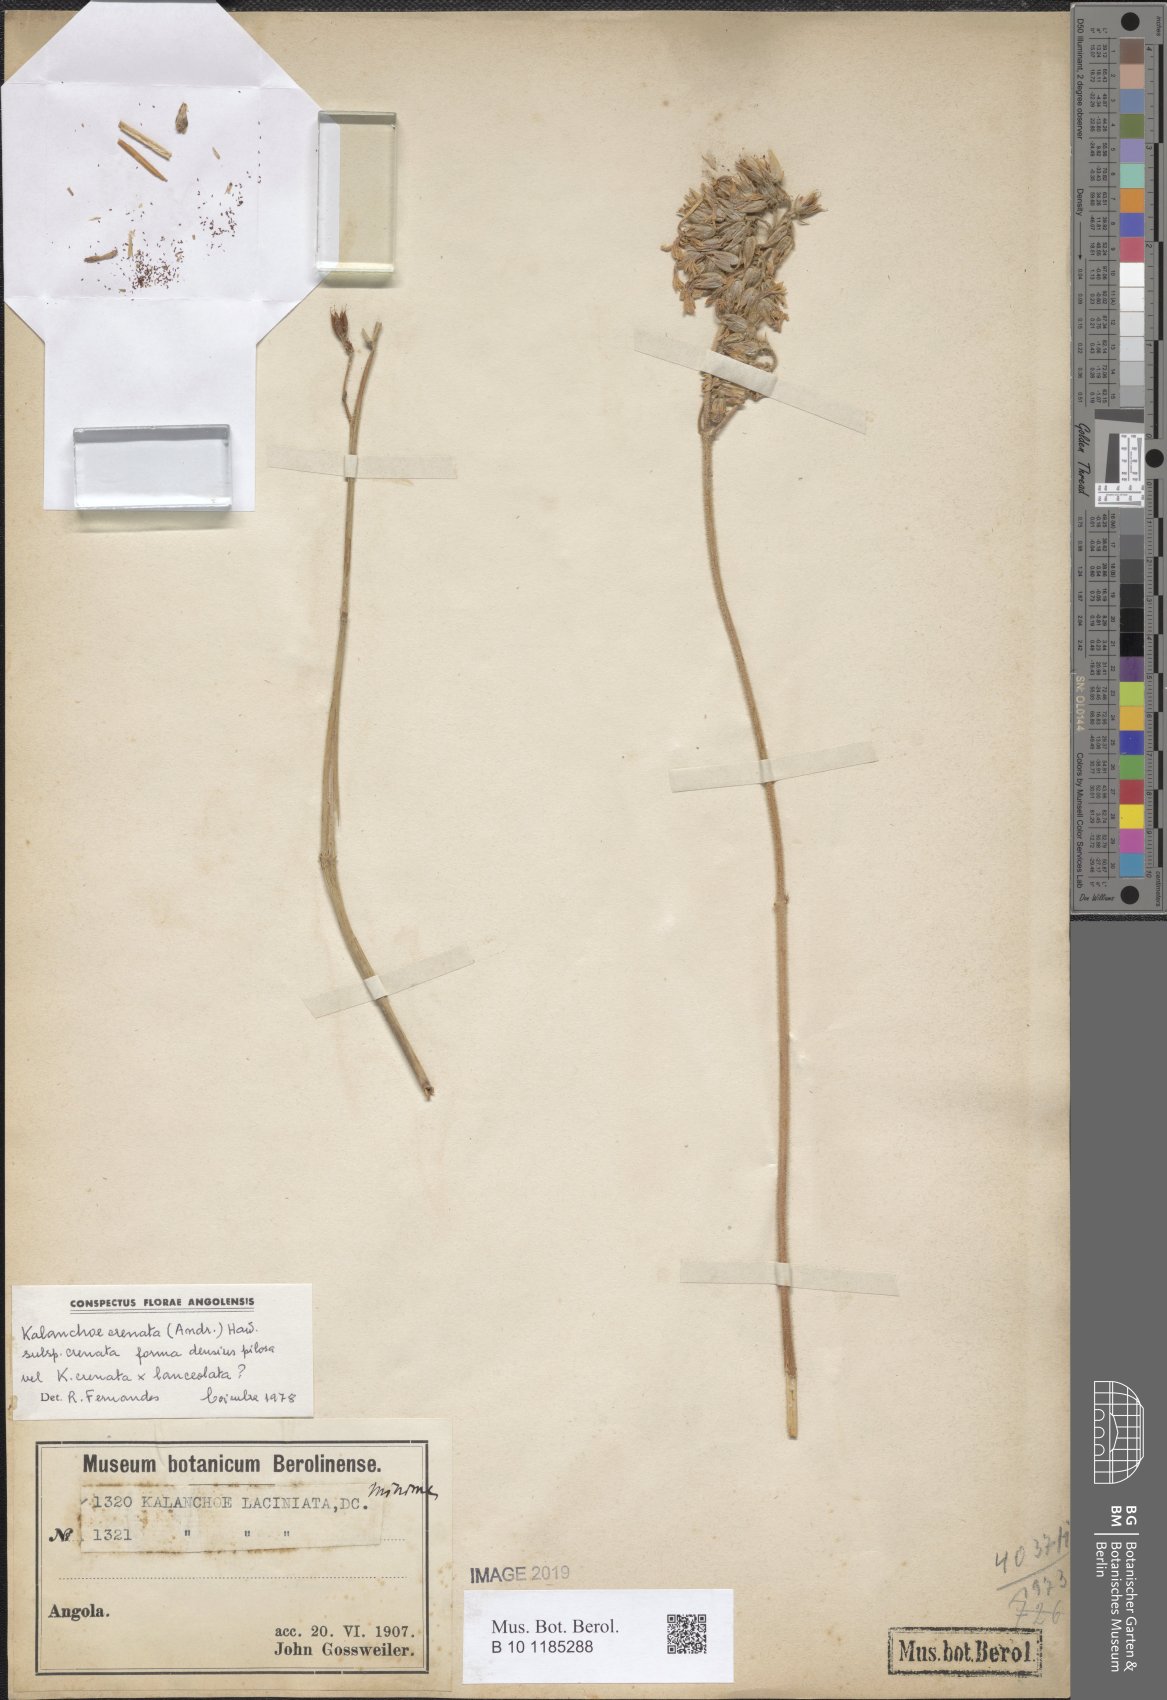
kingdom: Plantae
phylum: Tracheophyta
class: Magnoliopsida
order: Saxifragales
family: Crassulaceae
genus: Kalanchoe
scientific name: Kalanchoe crenata
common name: Neverdie
